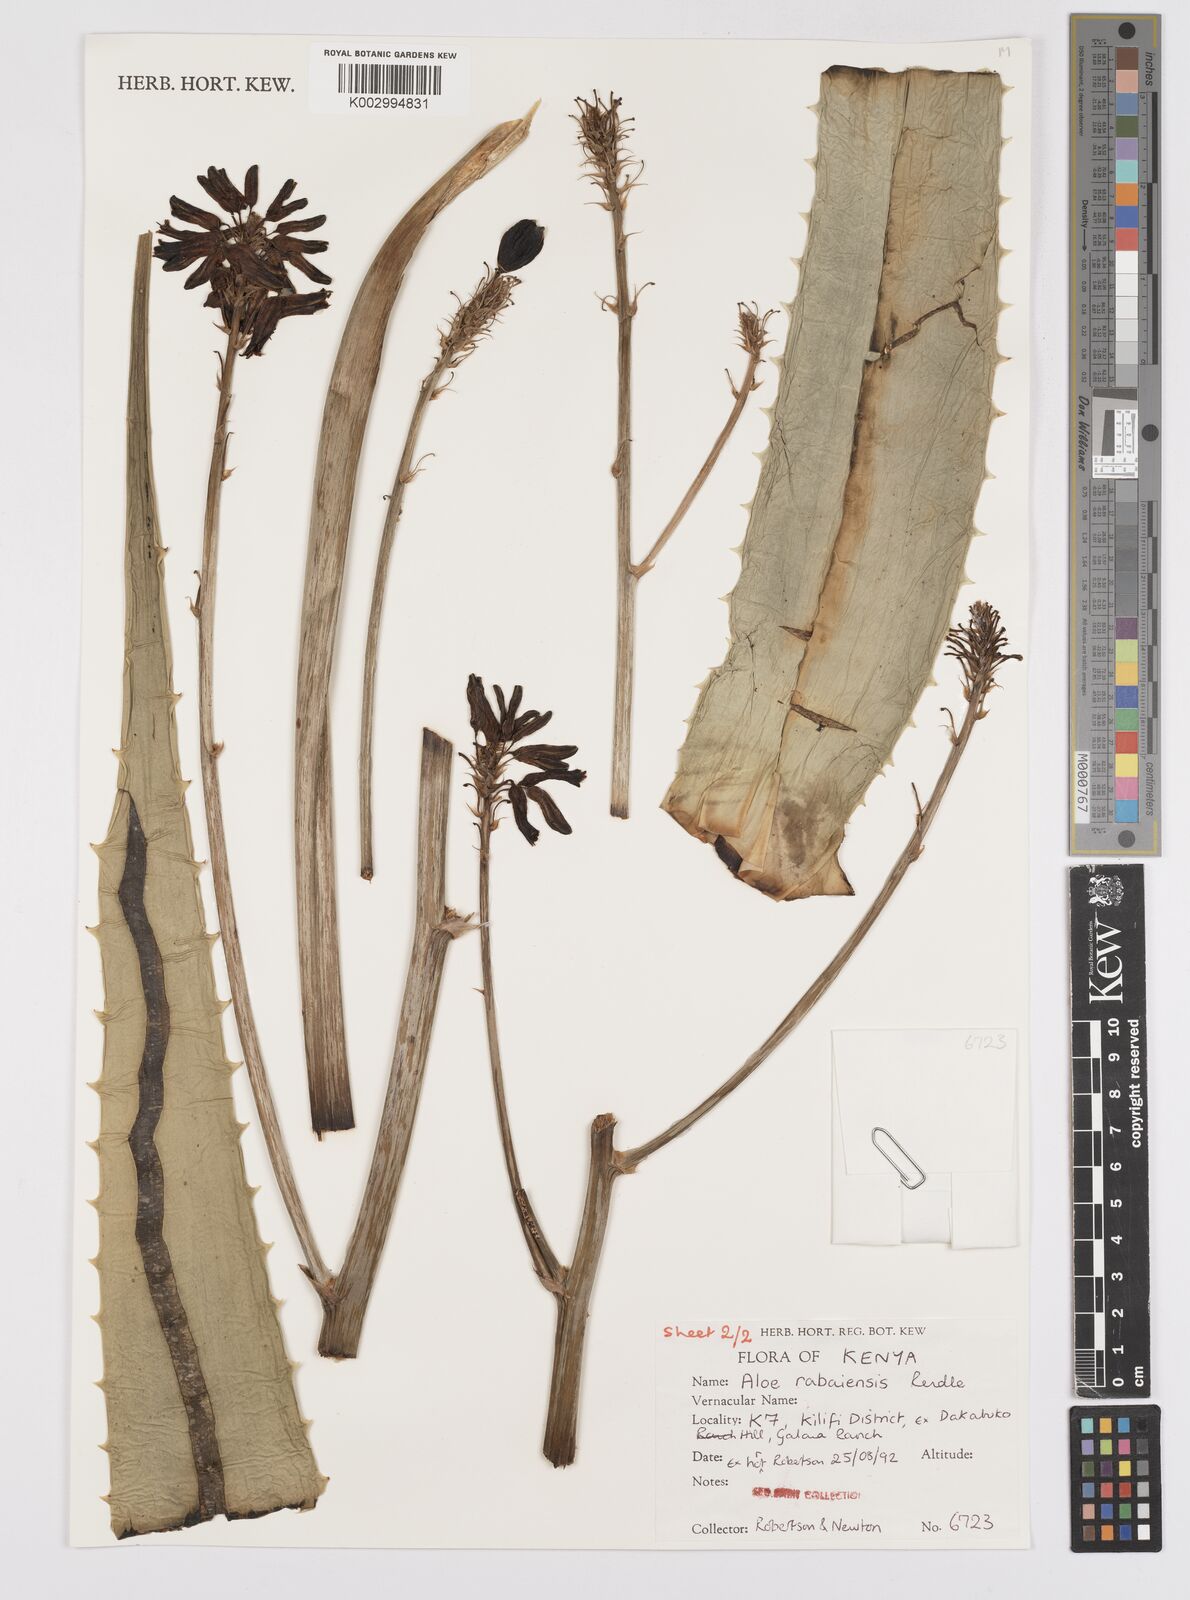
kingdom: Plantae
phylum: Tracheophyta
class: Liliopsida
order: Asparagales
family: Asphodelaceae
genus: Aloe
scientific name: Aloe rabaiensis
